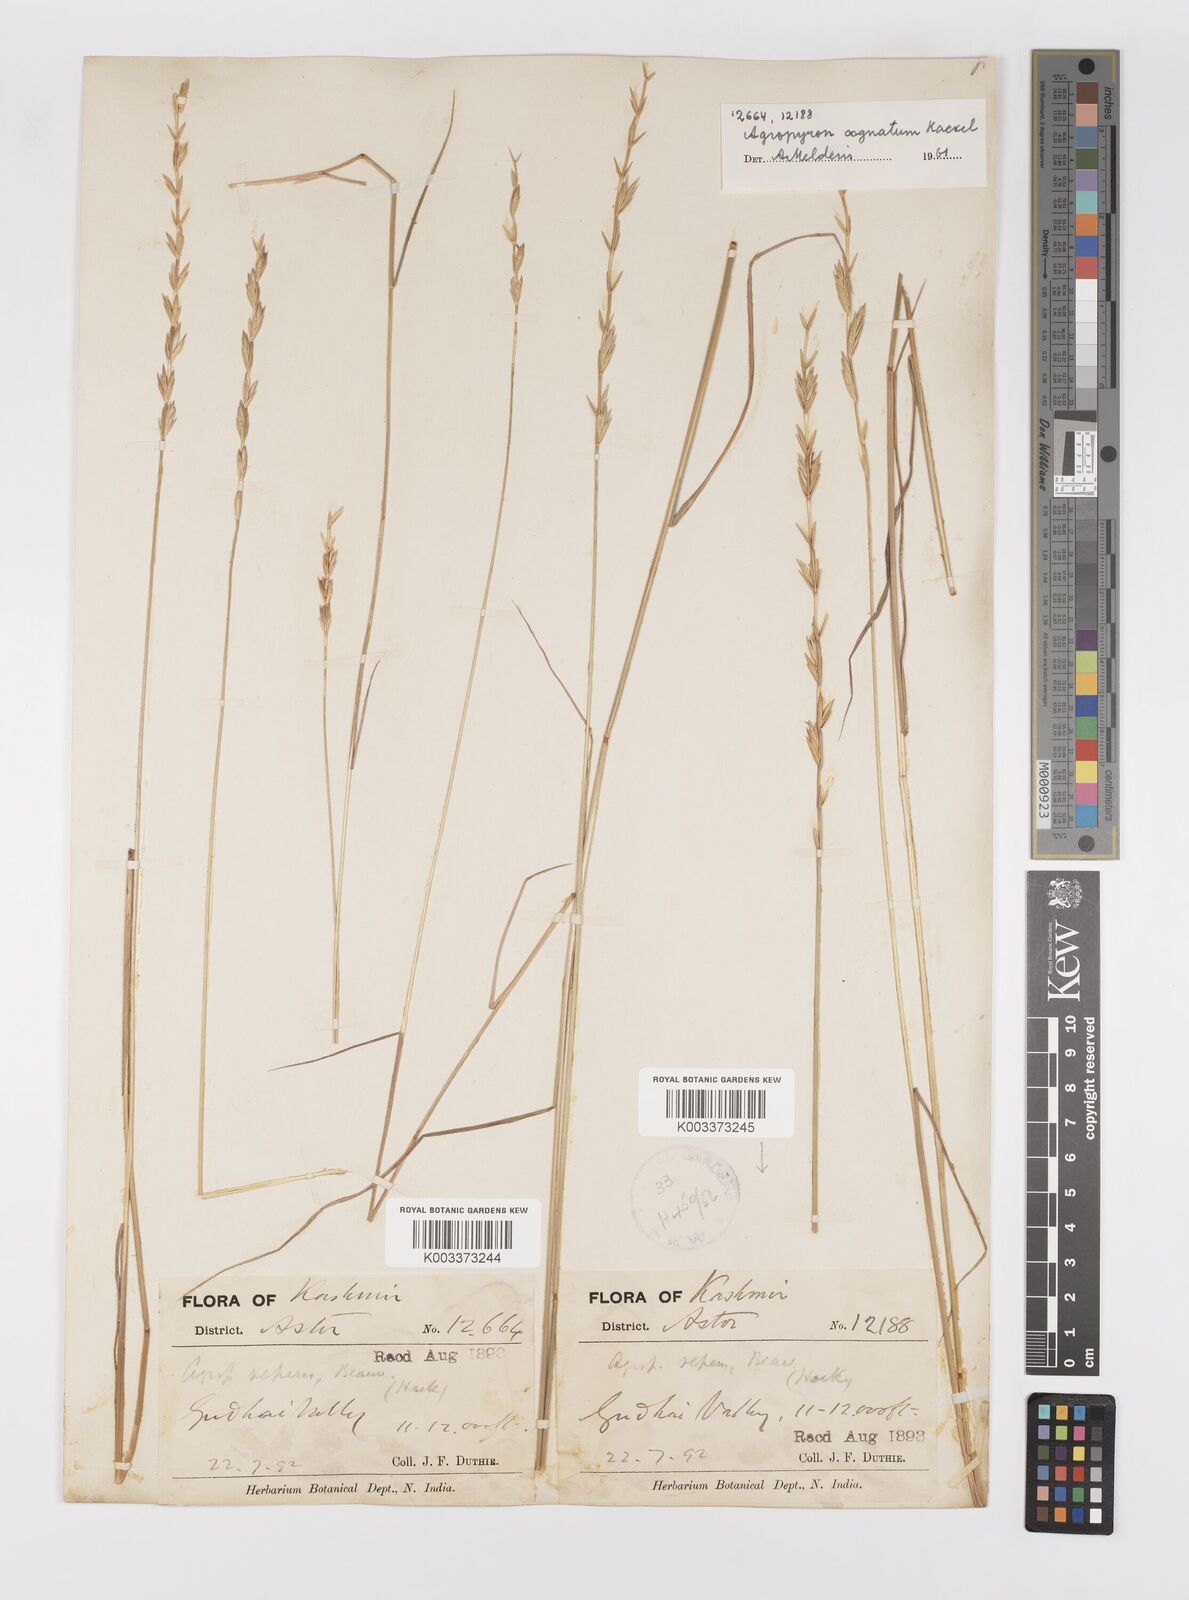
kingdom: Plantae
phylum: Tracheophyta
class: Liliopsida
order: Poales
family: Poaceae
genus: Pseudoroegneria
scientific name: Pseudoroegneria cognata
